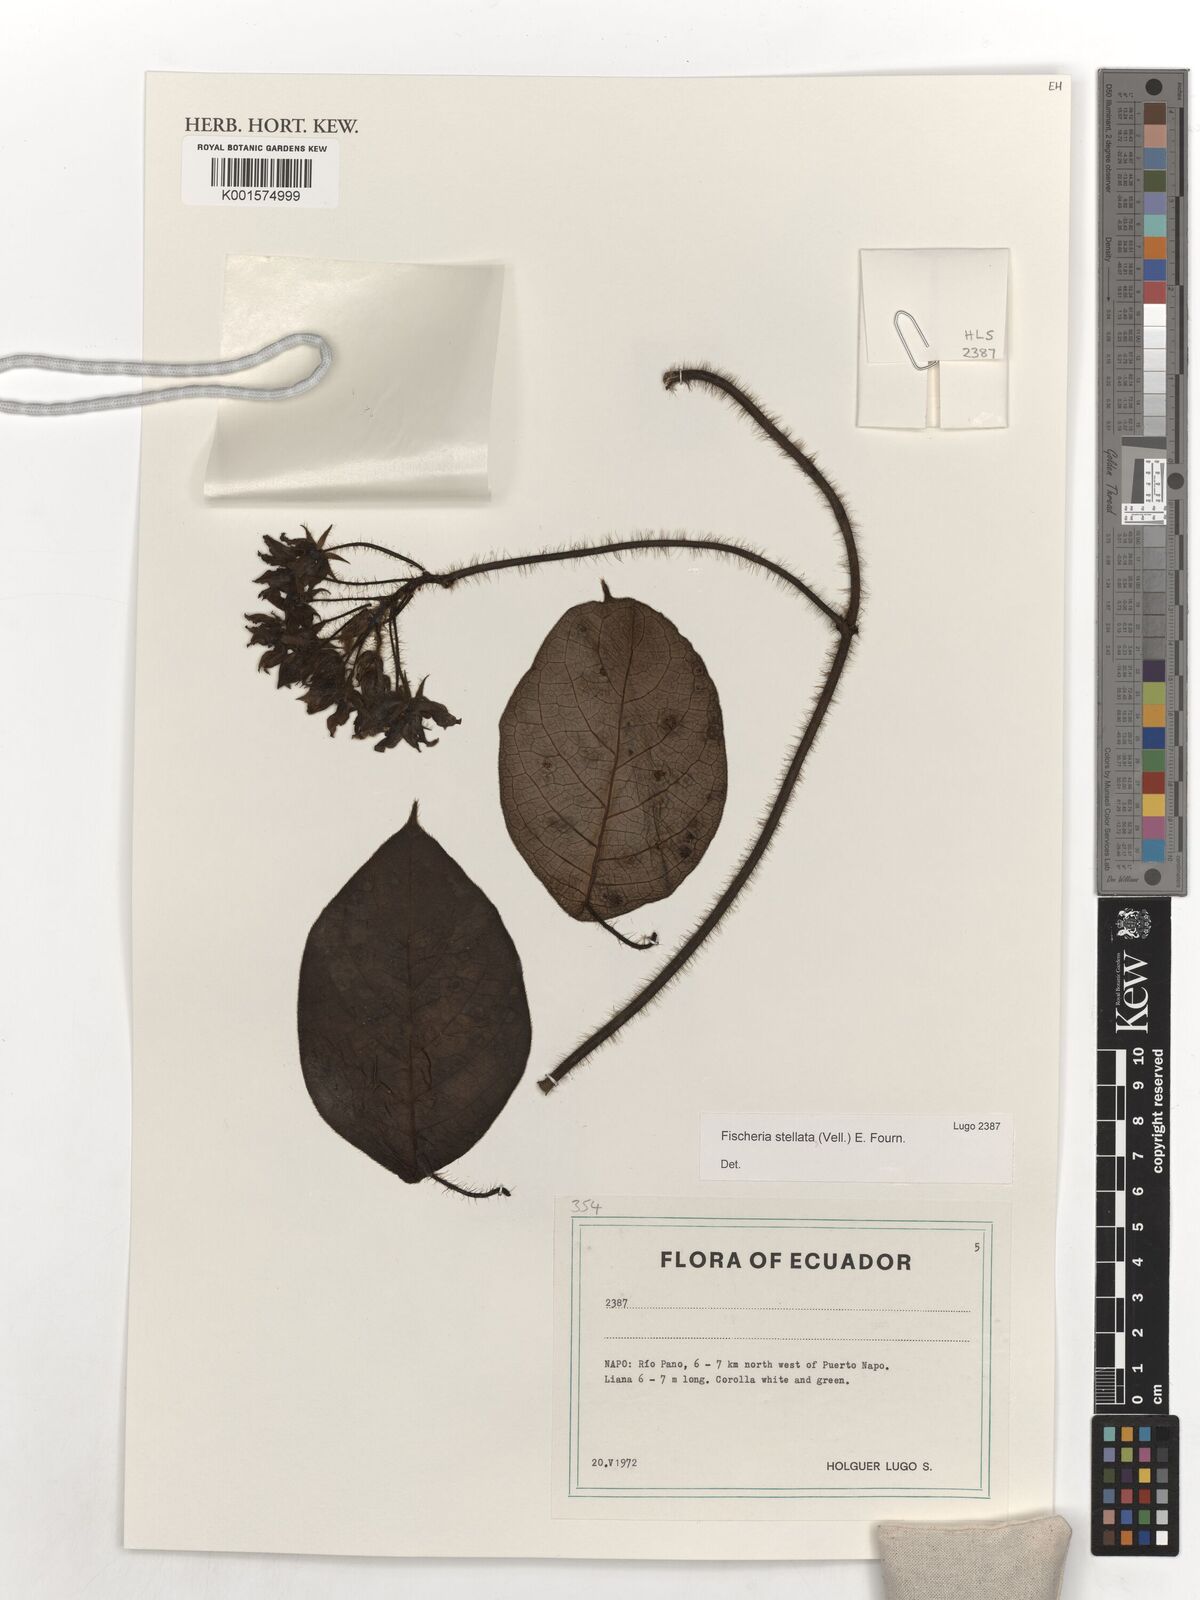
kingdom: Plantae
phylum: Tracheophyta
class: Magnoliopsida
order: Gentianales
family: Apocynaceae
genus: Fischeria
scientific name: Fischeria stellata
